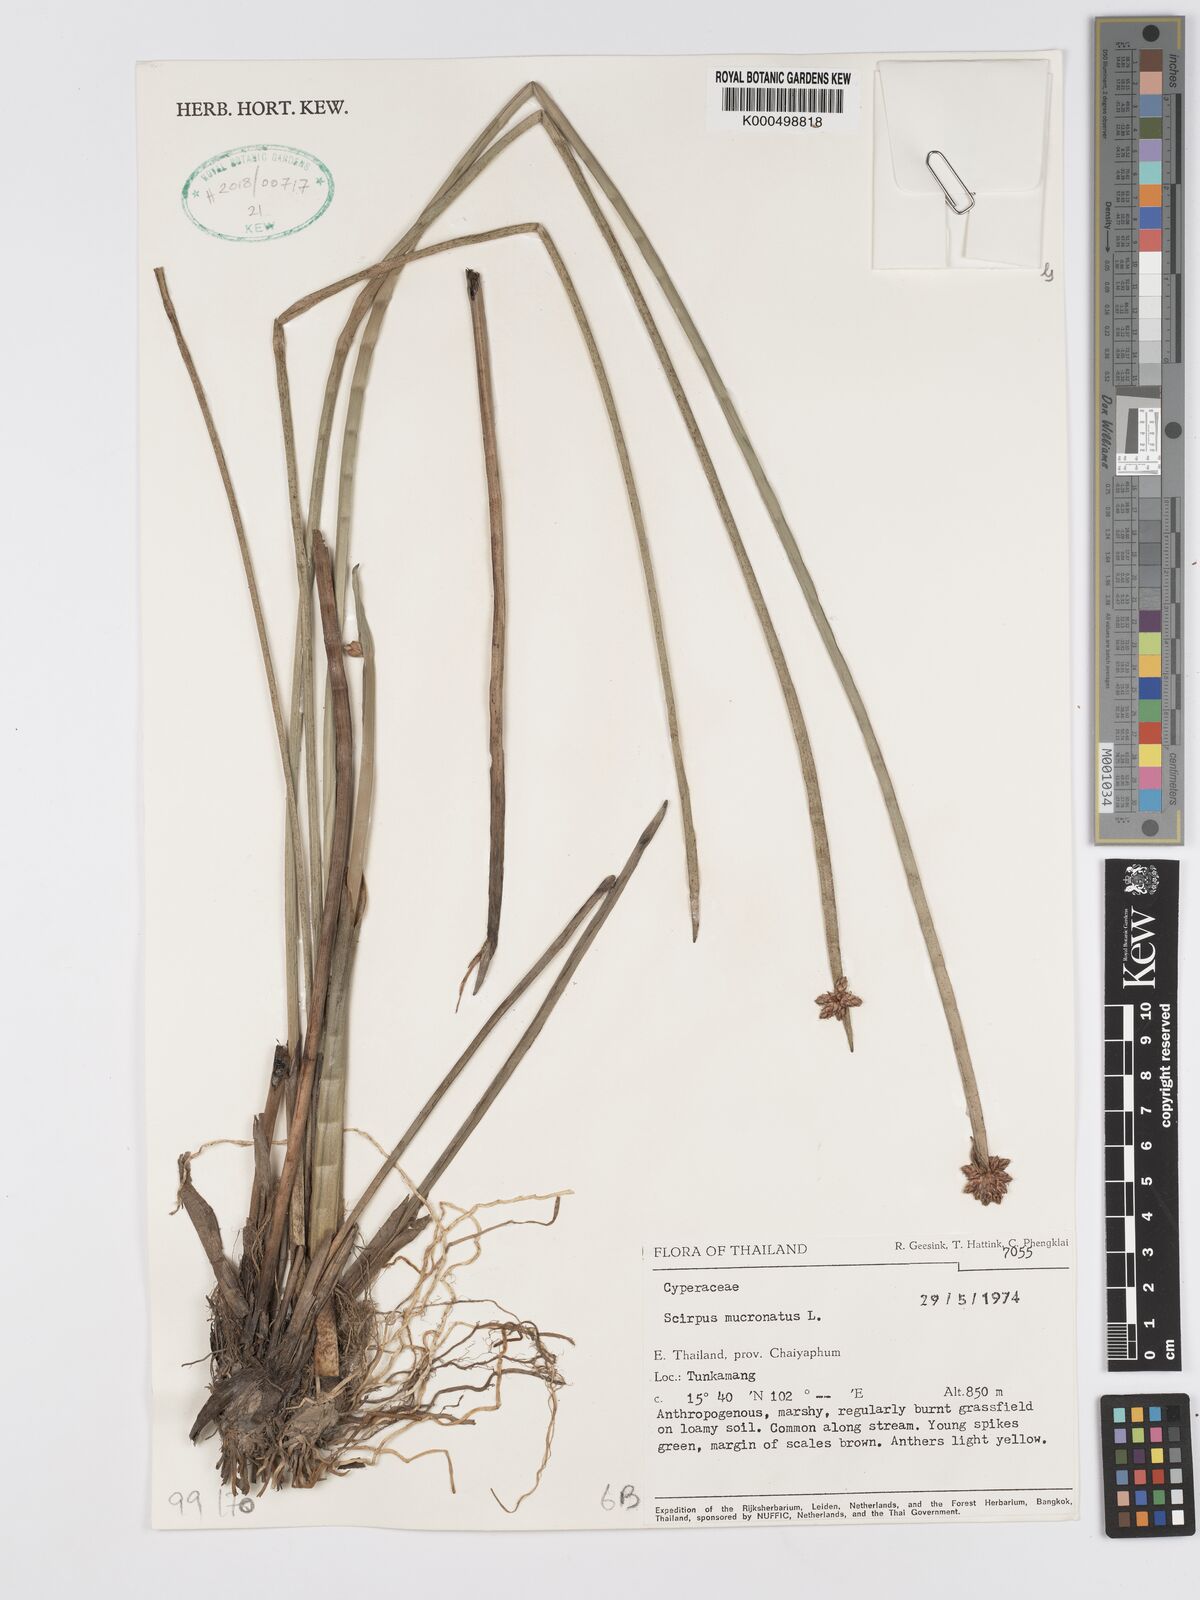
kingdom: Plantae
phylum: Tracheophyta
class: Liliopsida
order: Poales
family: Cyperaceae
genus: Schoenoplectiella
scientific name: Schoenoplectiella mucronata
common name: Bog bulrush
